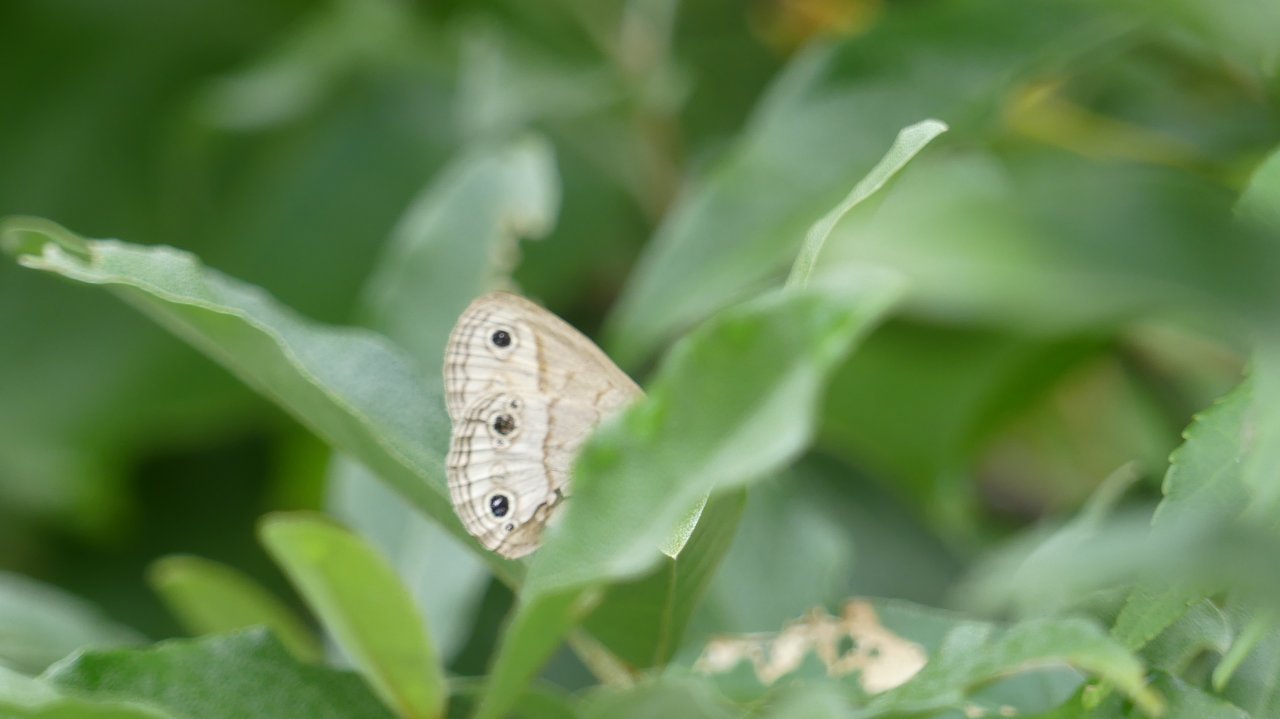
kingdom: Animalia
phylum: Arthropoda
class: Insecta
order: Lepidoptera
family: Nymphalidae
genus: Euptychia
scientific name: Euptychia cymela
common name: Little Wood Satyr
